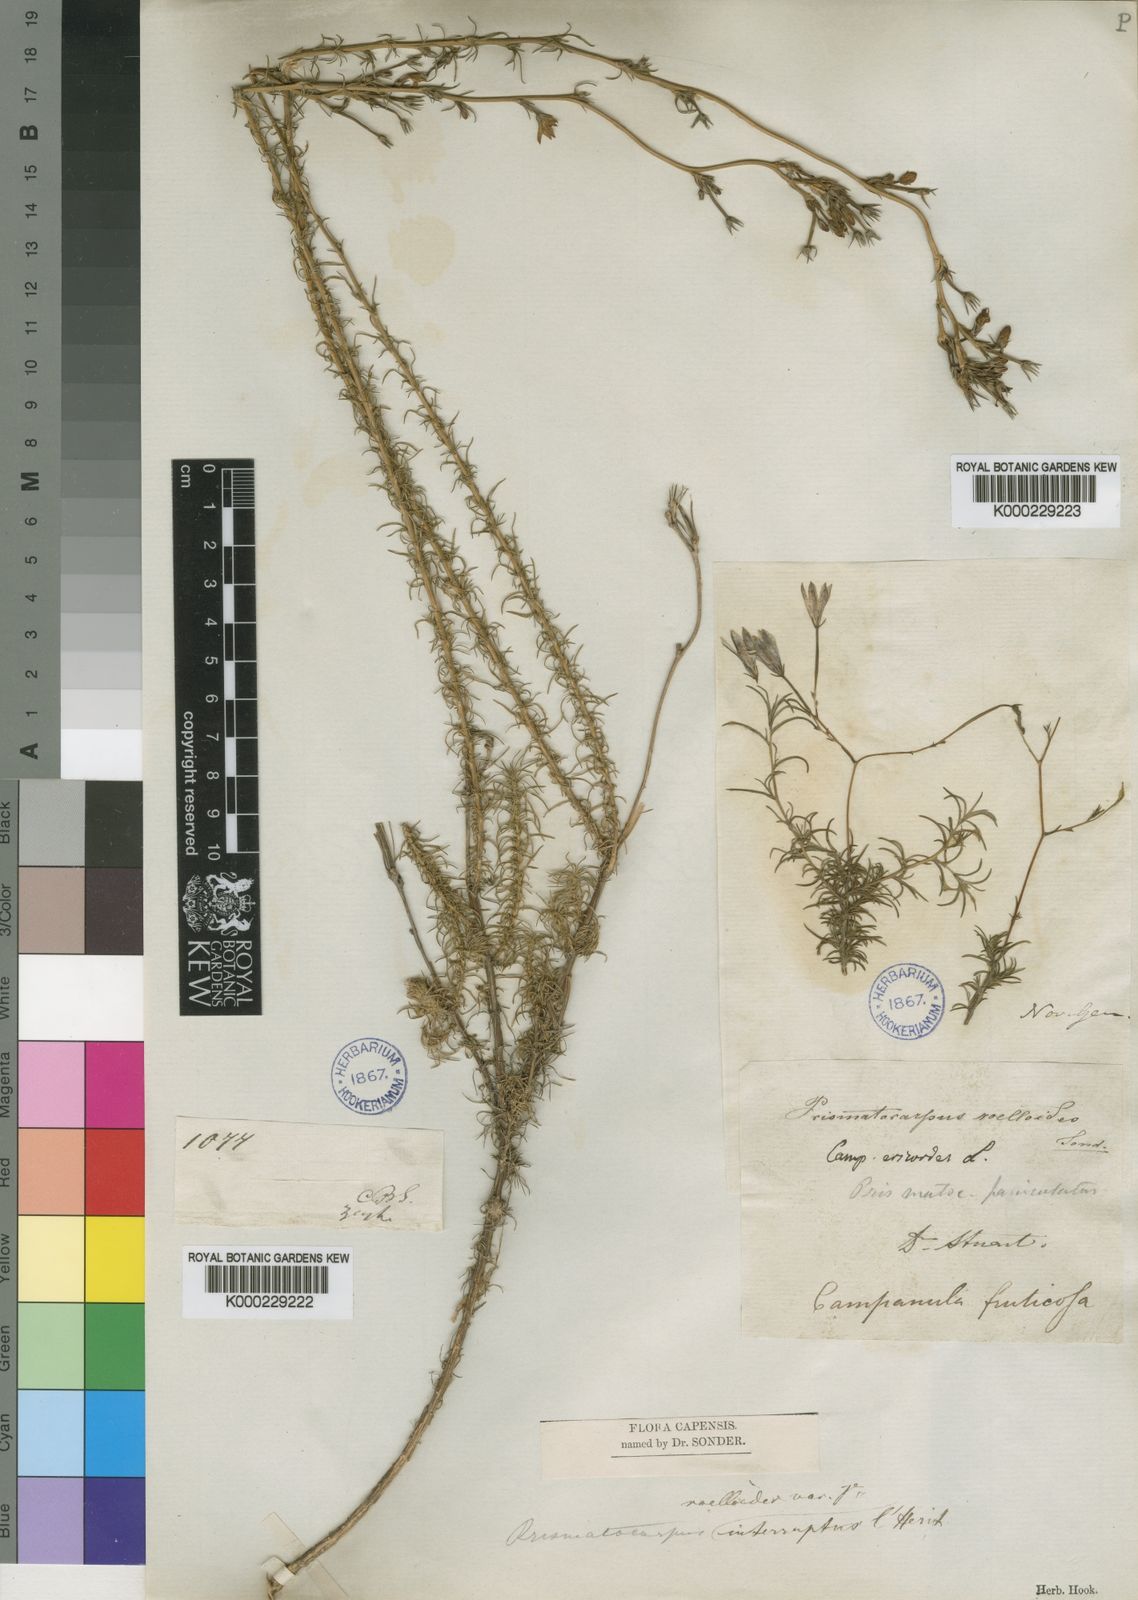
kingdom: Plantae
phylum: Tracheophyta
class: Magnoliopsida
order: Asterales
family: Campanulaceae
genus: Prismatocarpus
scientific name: Prismatocarpus pedunculatus
